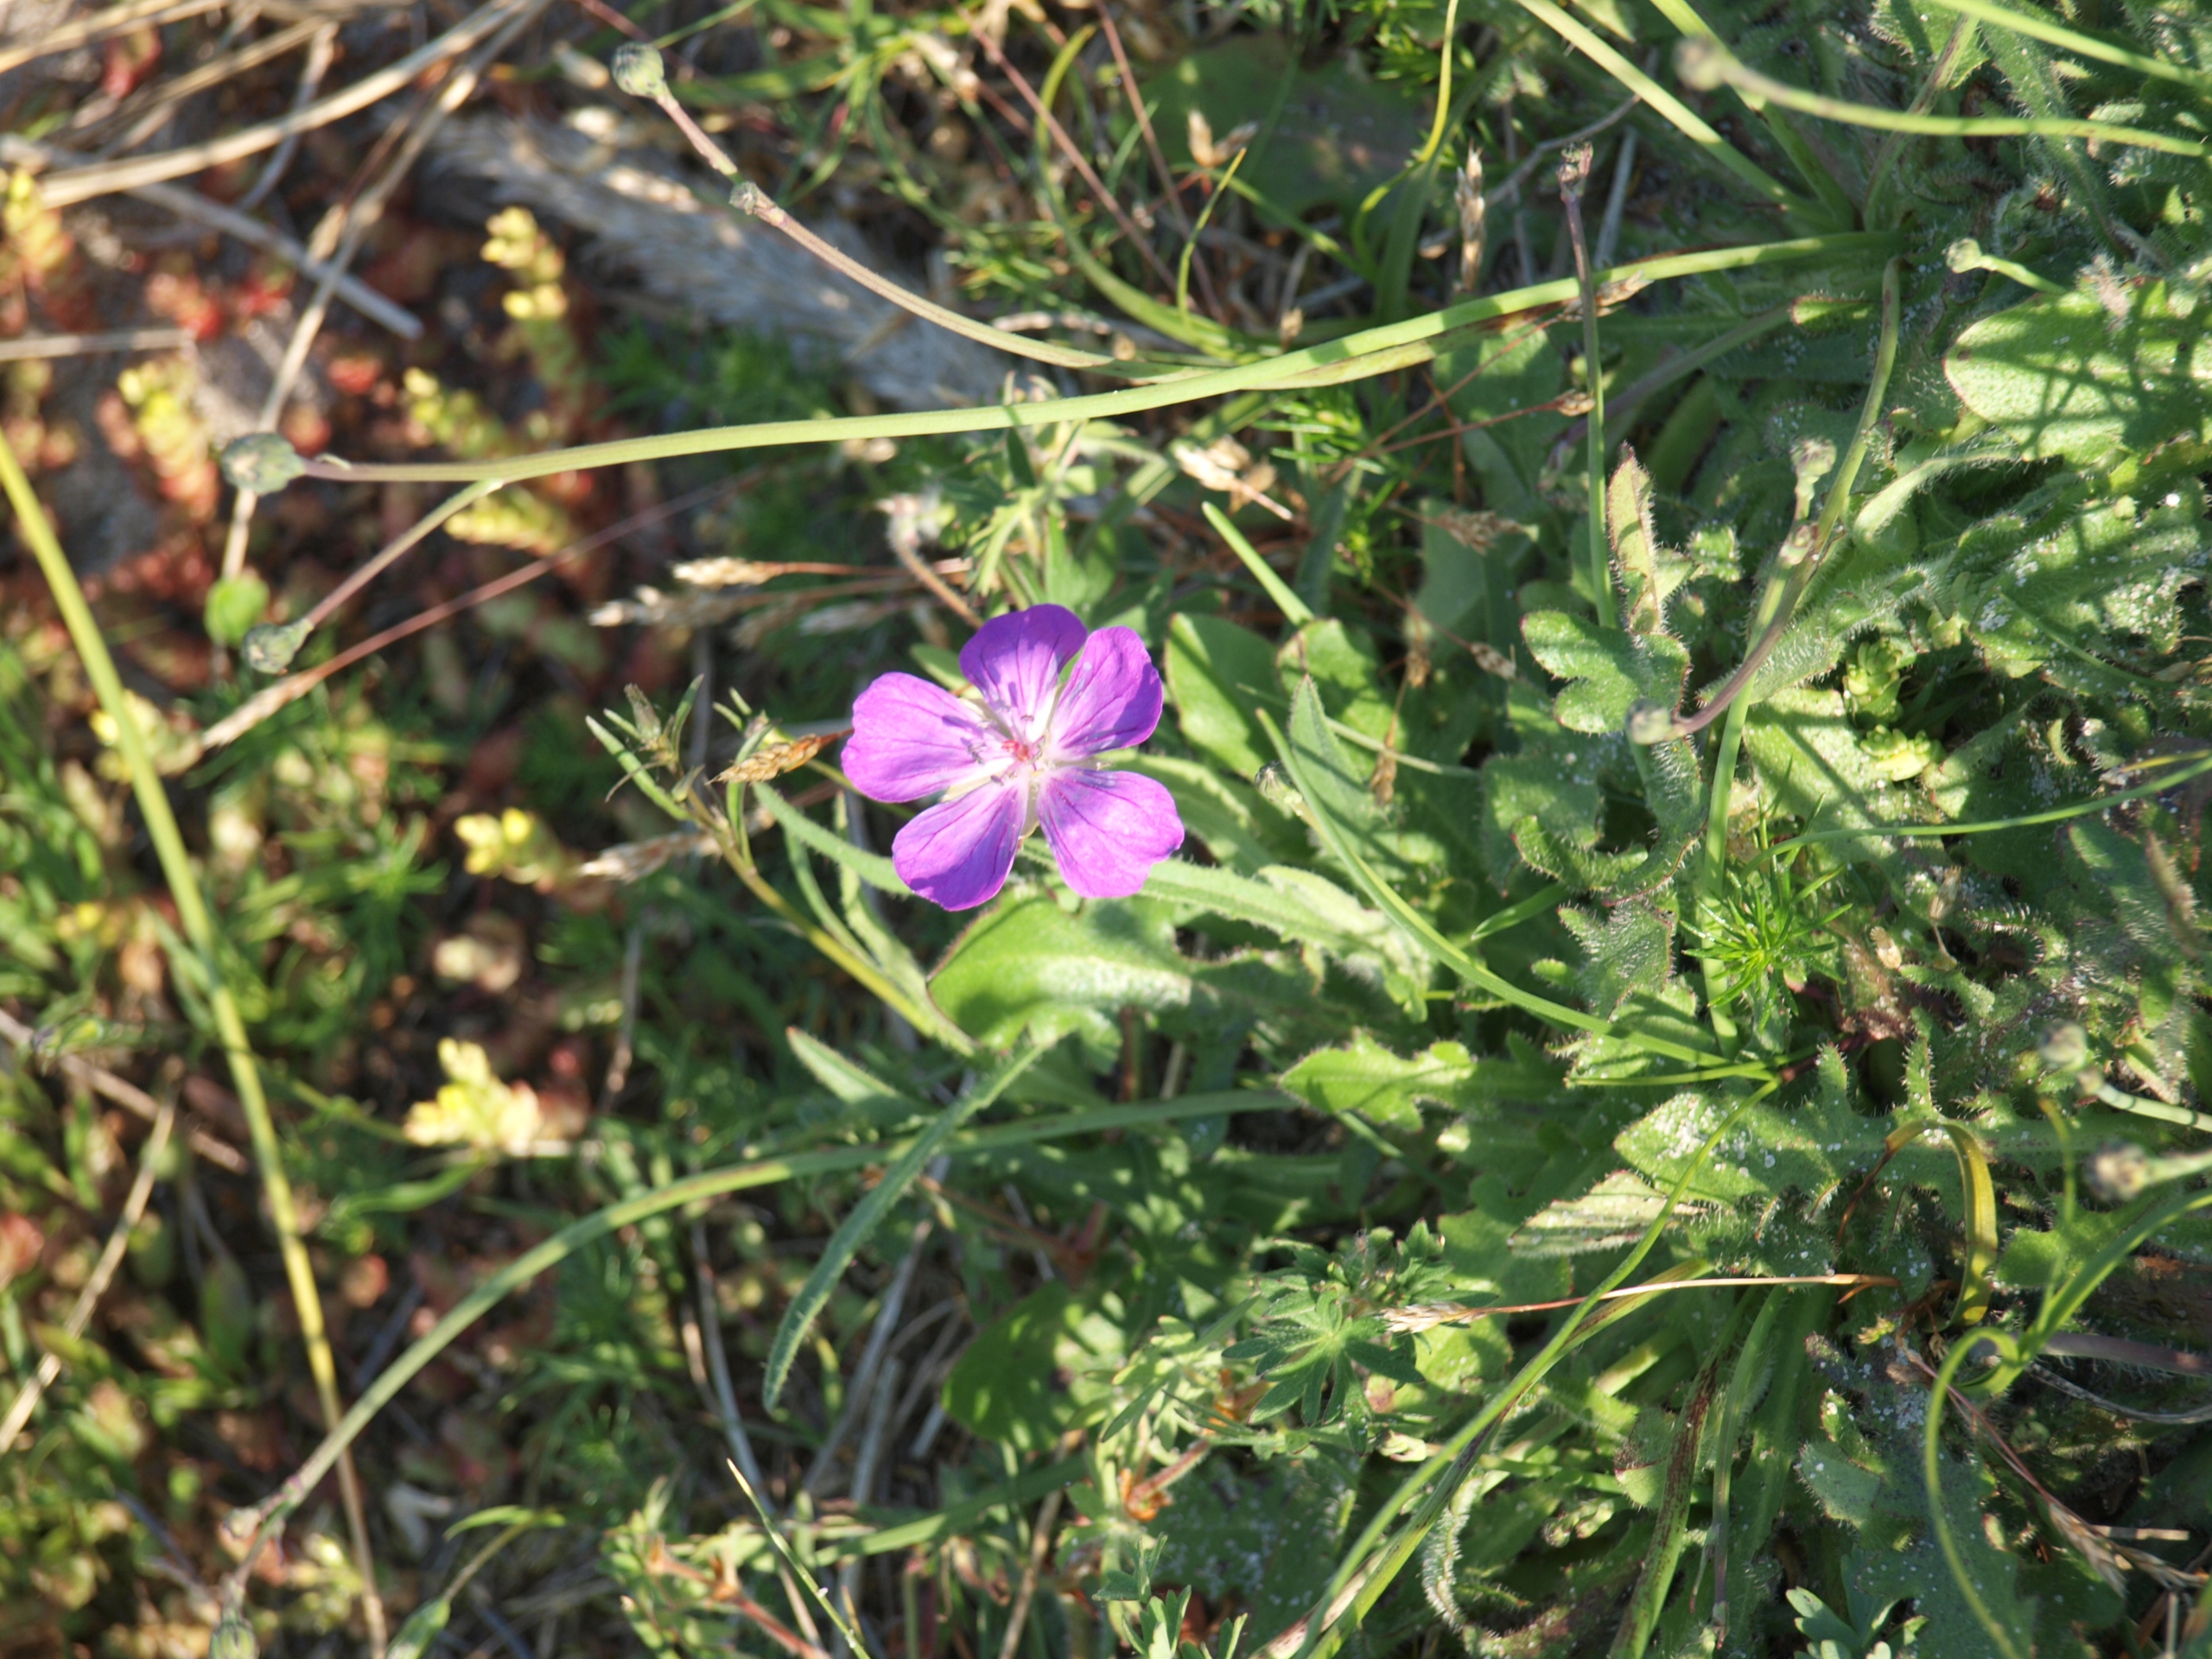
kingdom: Plantae
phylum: Tracheophyta
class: Magnoliopsida
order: Geraniales
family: Geraniaceae
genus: Geranium
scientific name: Geranium sanguineum
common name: Blodrød storkenæb
